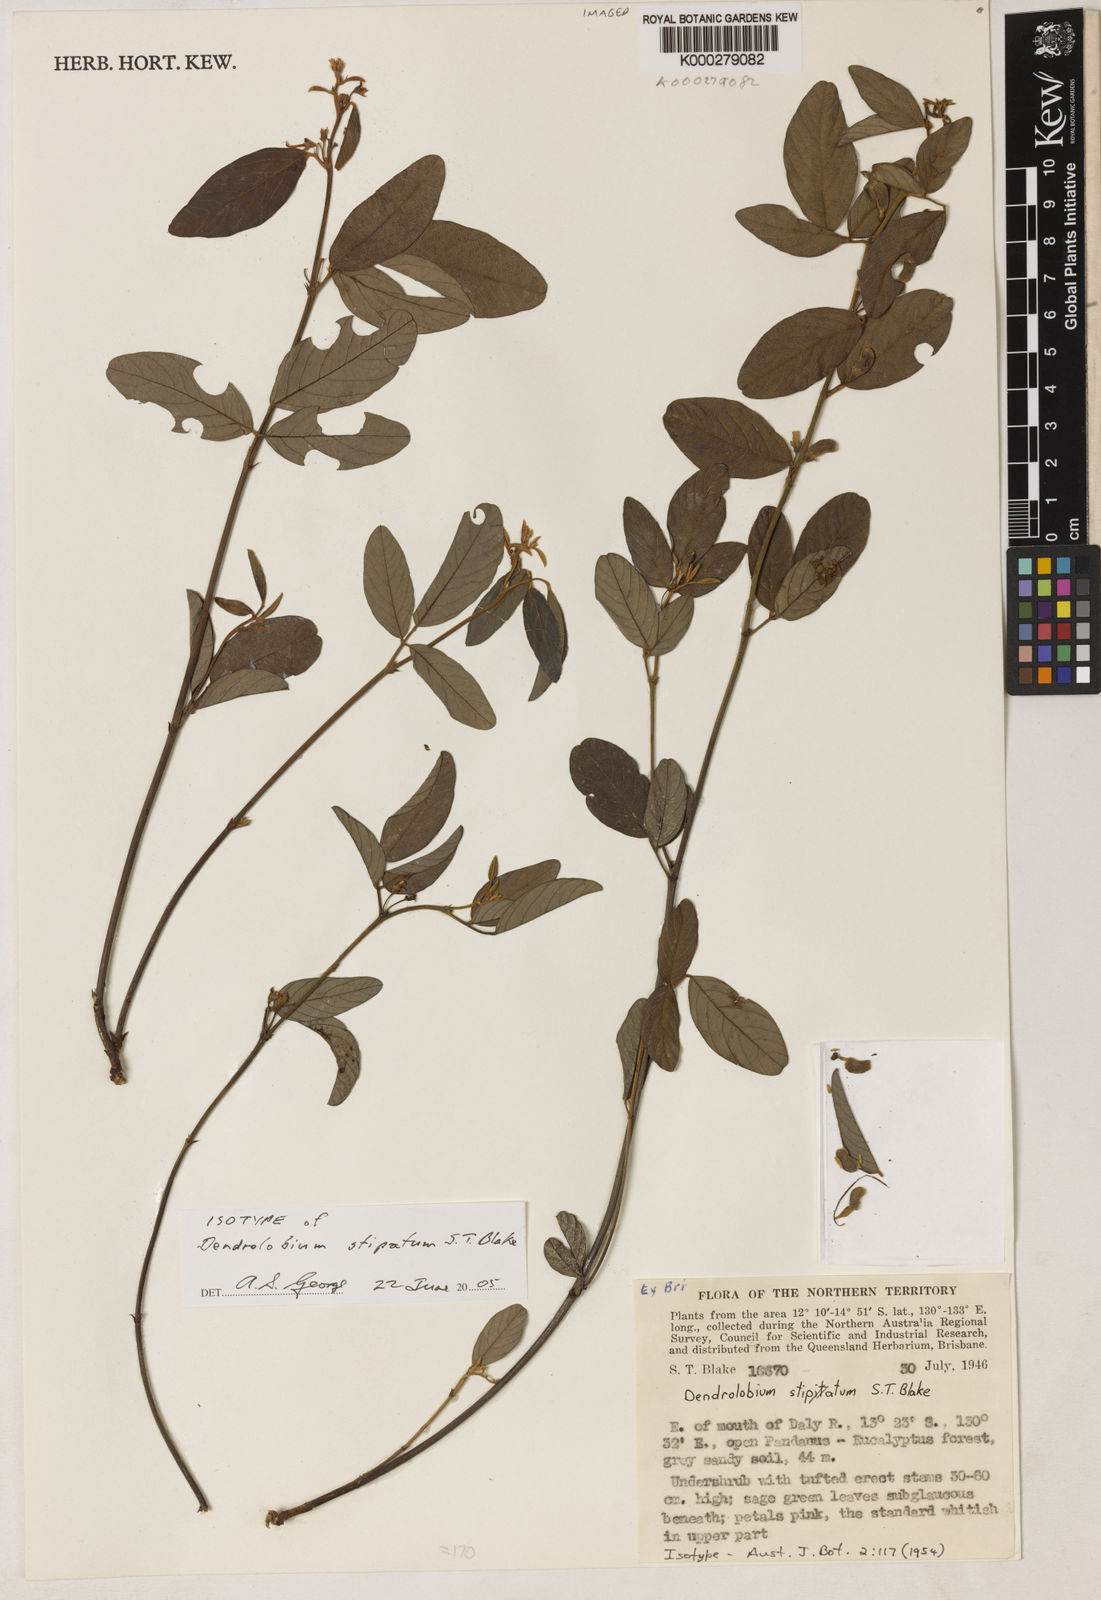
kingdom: Plantae
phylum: Tracheophyta
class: Magnoliopsida
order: Fabales
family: Fabaceae
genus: Dendrolobium
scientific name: Dendrolobium stipatum
